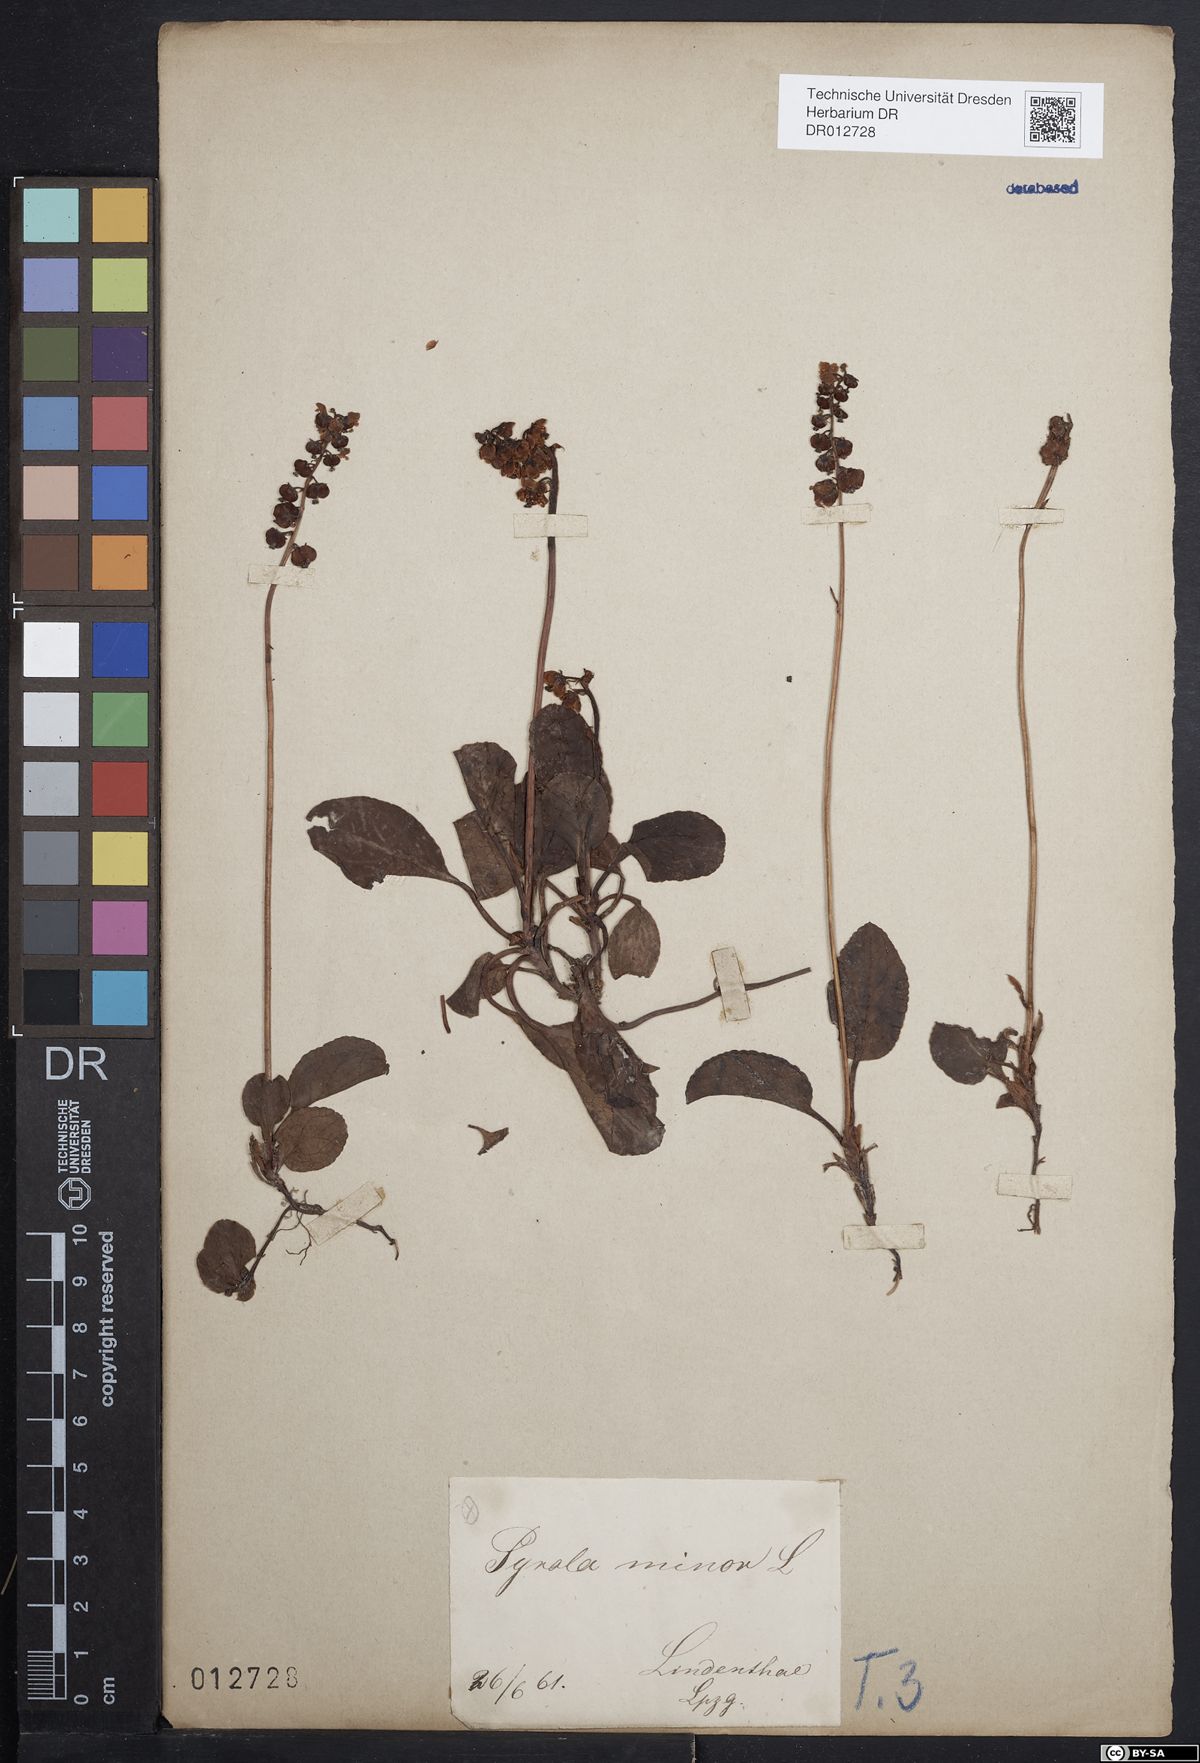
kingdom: Plantae
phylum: Tracheophyta
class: Magnoliopsida
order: Ericales
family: Ericaceae
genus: Pyrola
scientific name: Pyrola minor
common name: Common wintergreen
